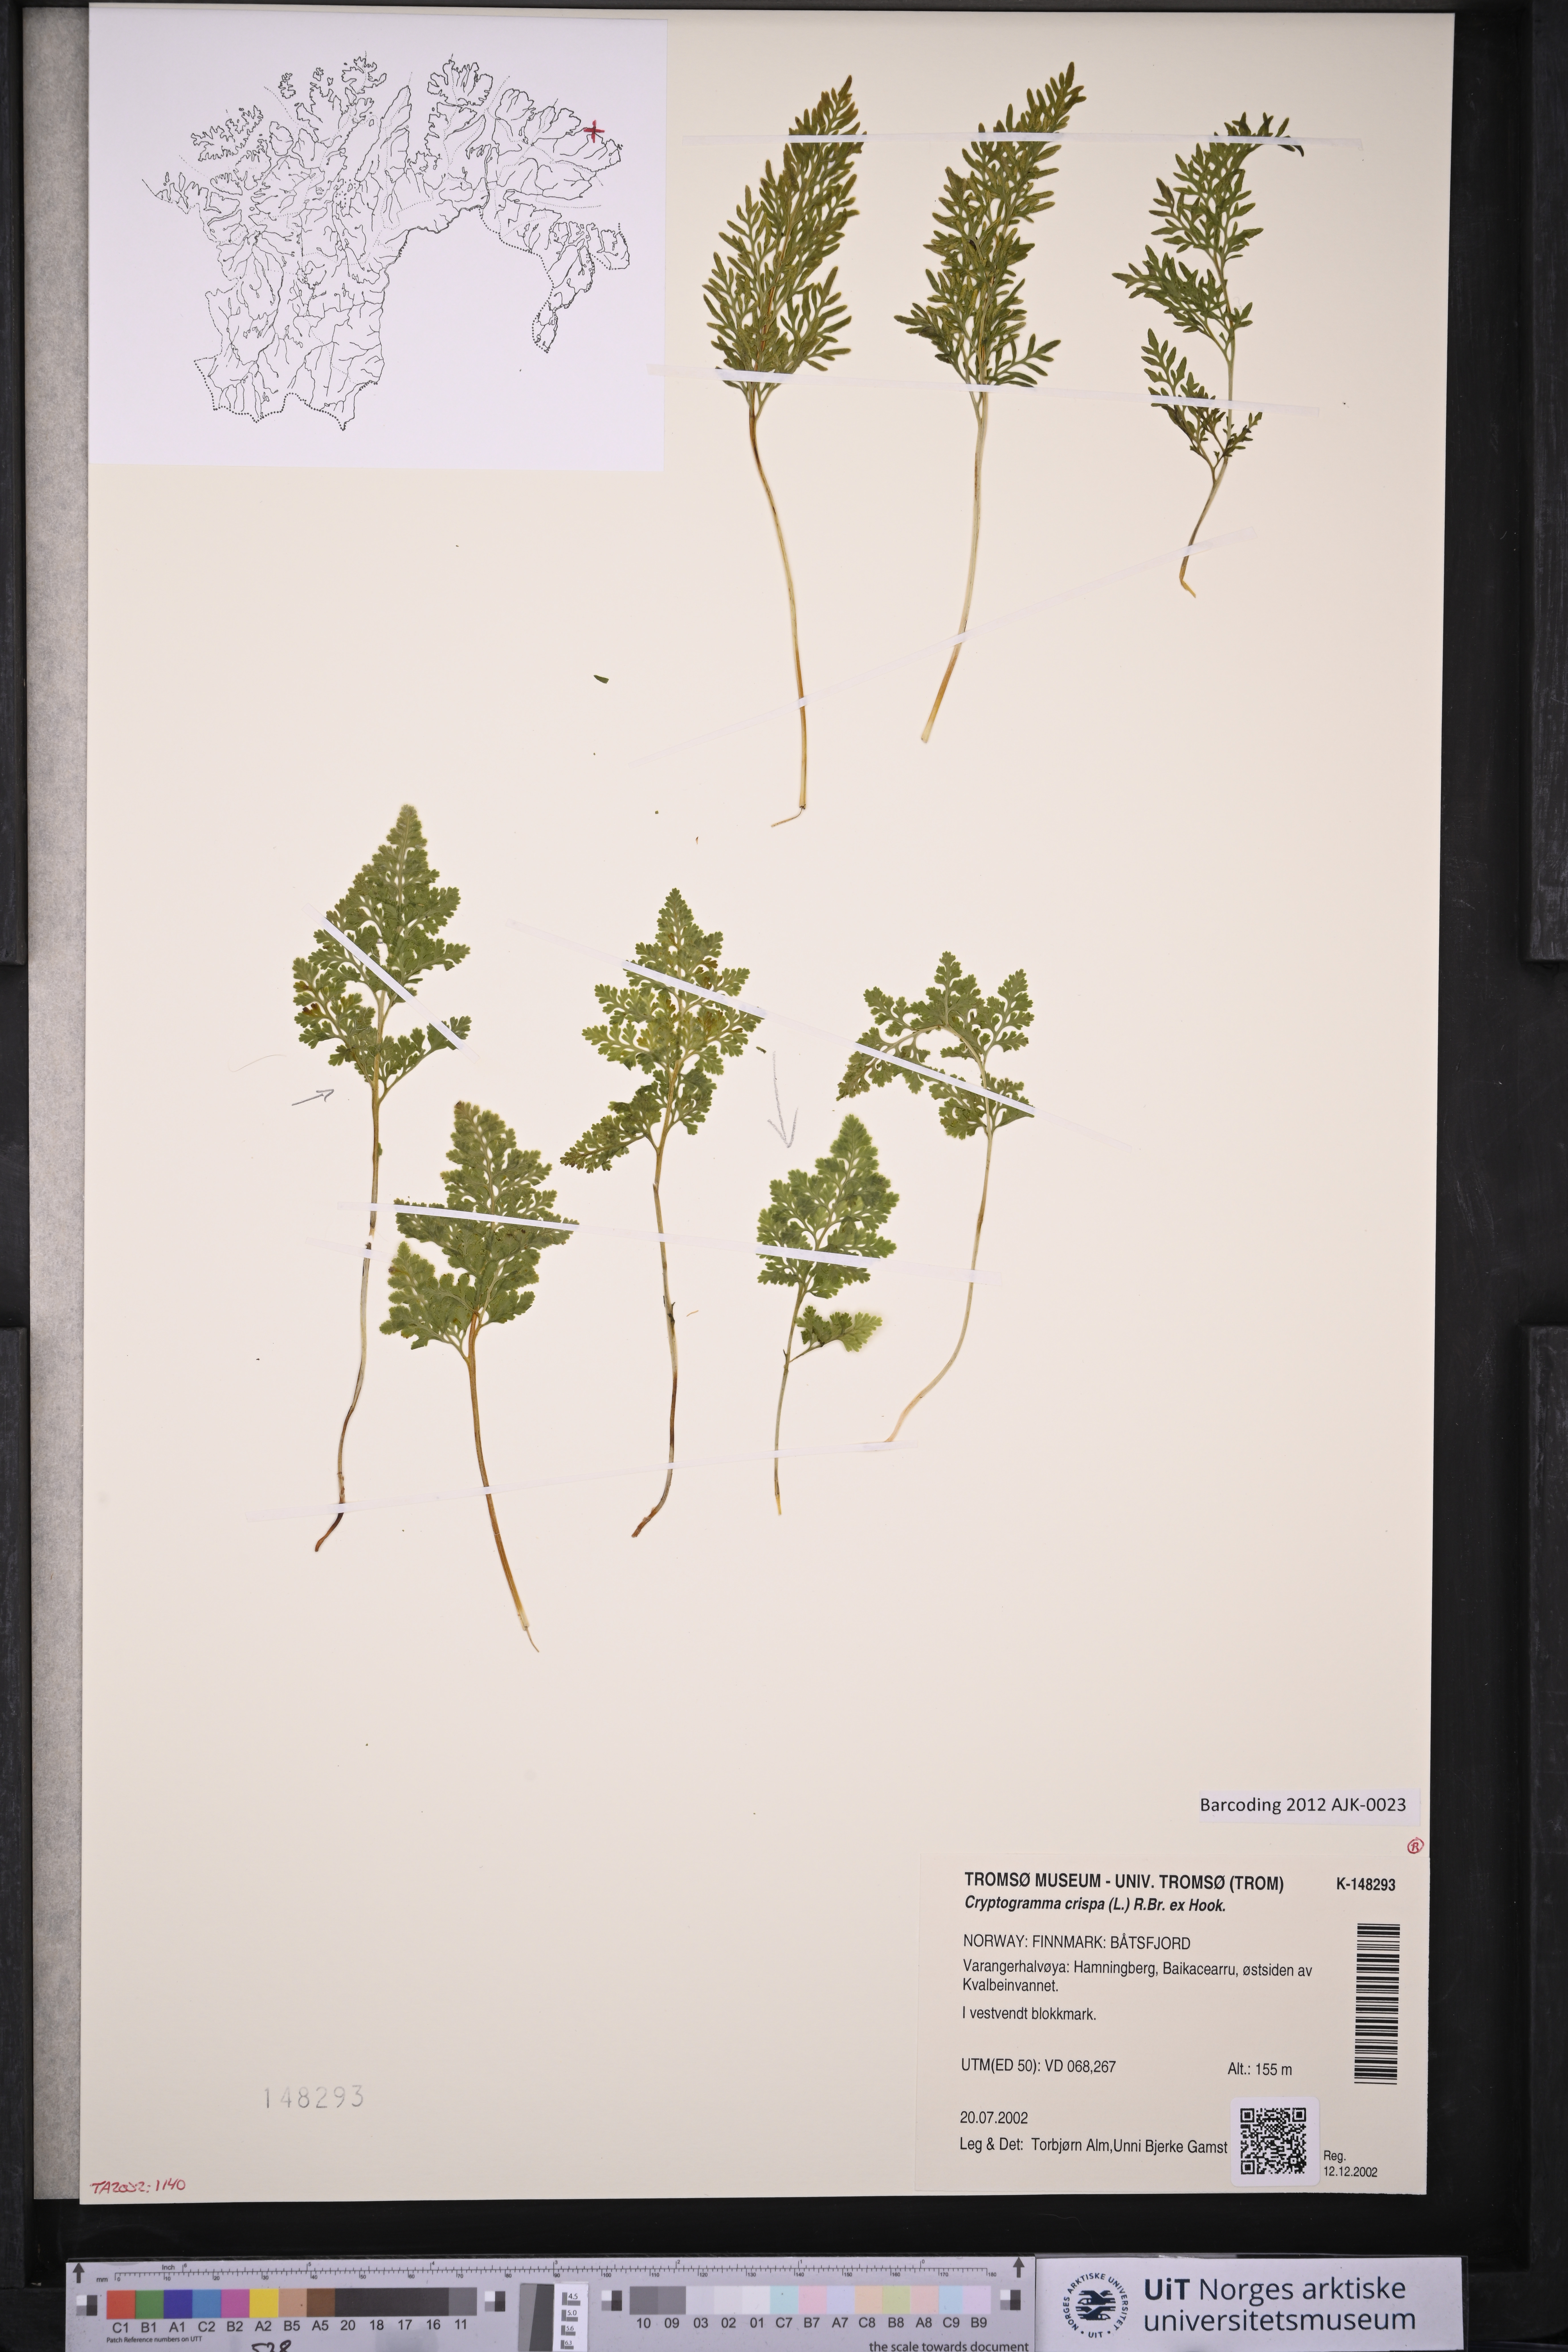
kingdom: Plantae
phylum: Tracheophyta
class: Polypodiopsida
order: Polypodiales
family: Pteridaceae
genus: Cryptogramma
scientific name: Cryptogramma crispa
